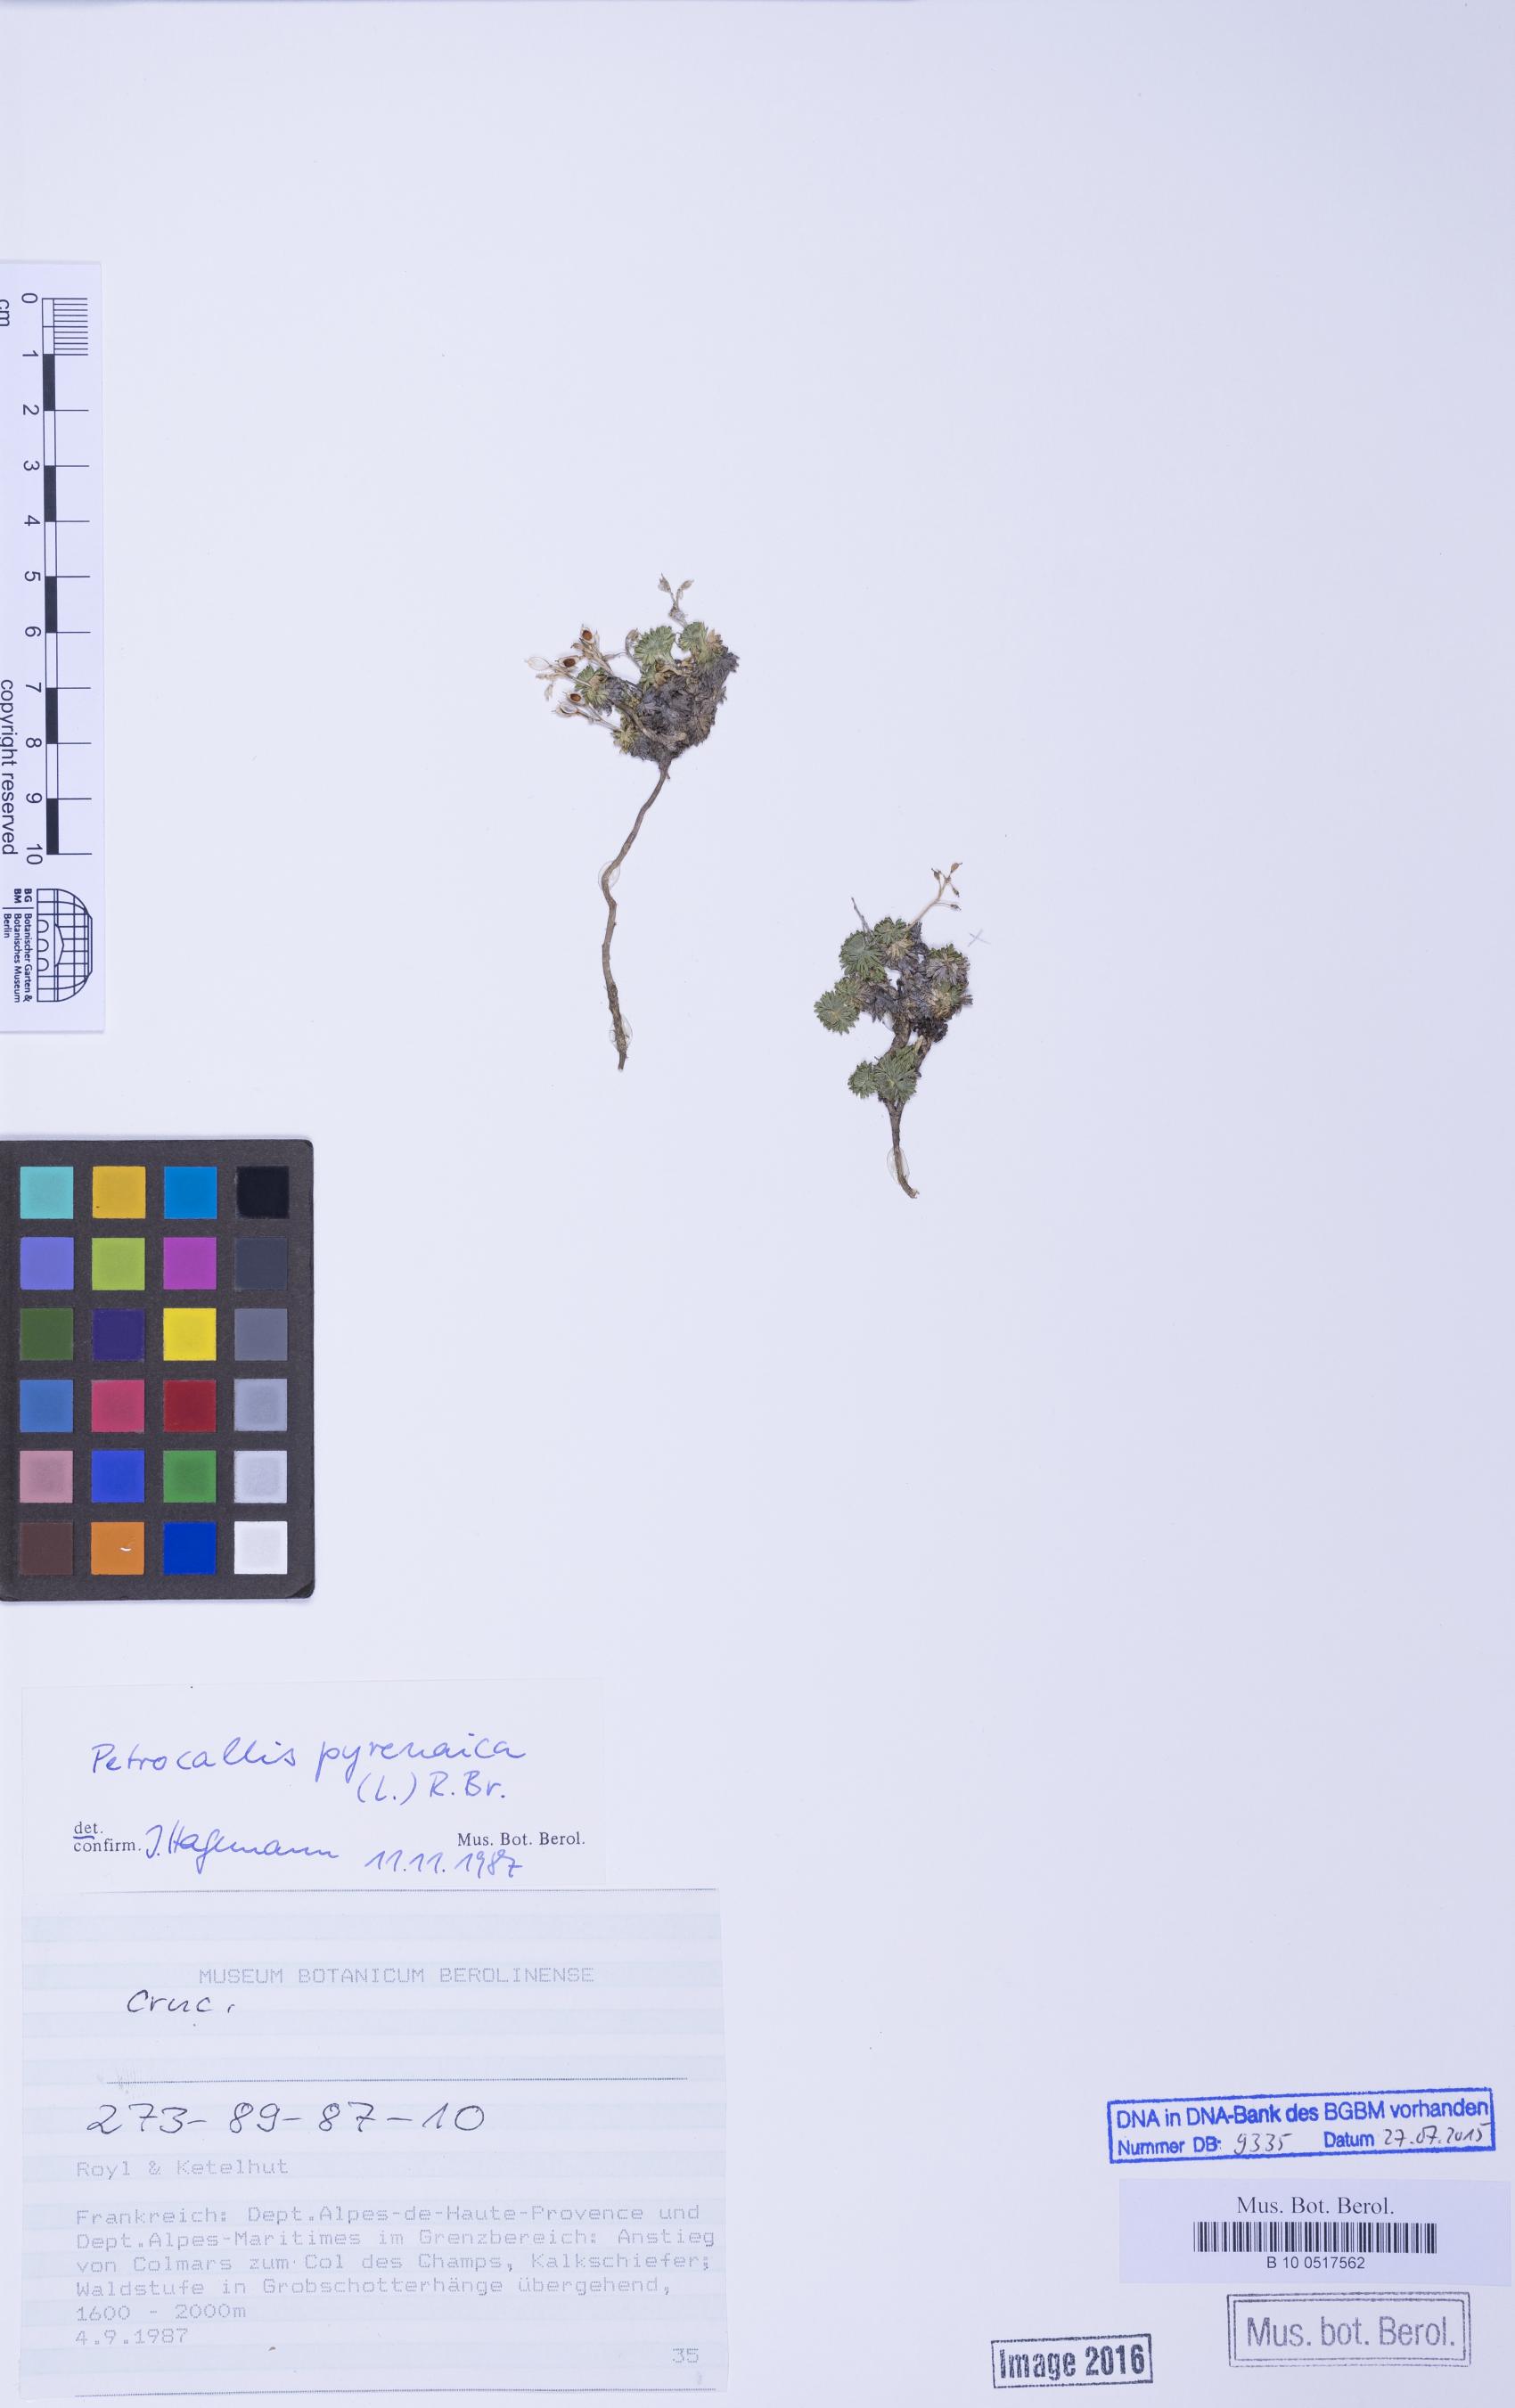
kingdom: Plantae
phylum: Tracheophyta
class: Magnoliopsida
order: Brassicales
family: Brassicaceae
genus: Petrocallis
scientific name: Petrocallis pyrenaica
